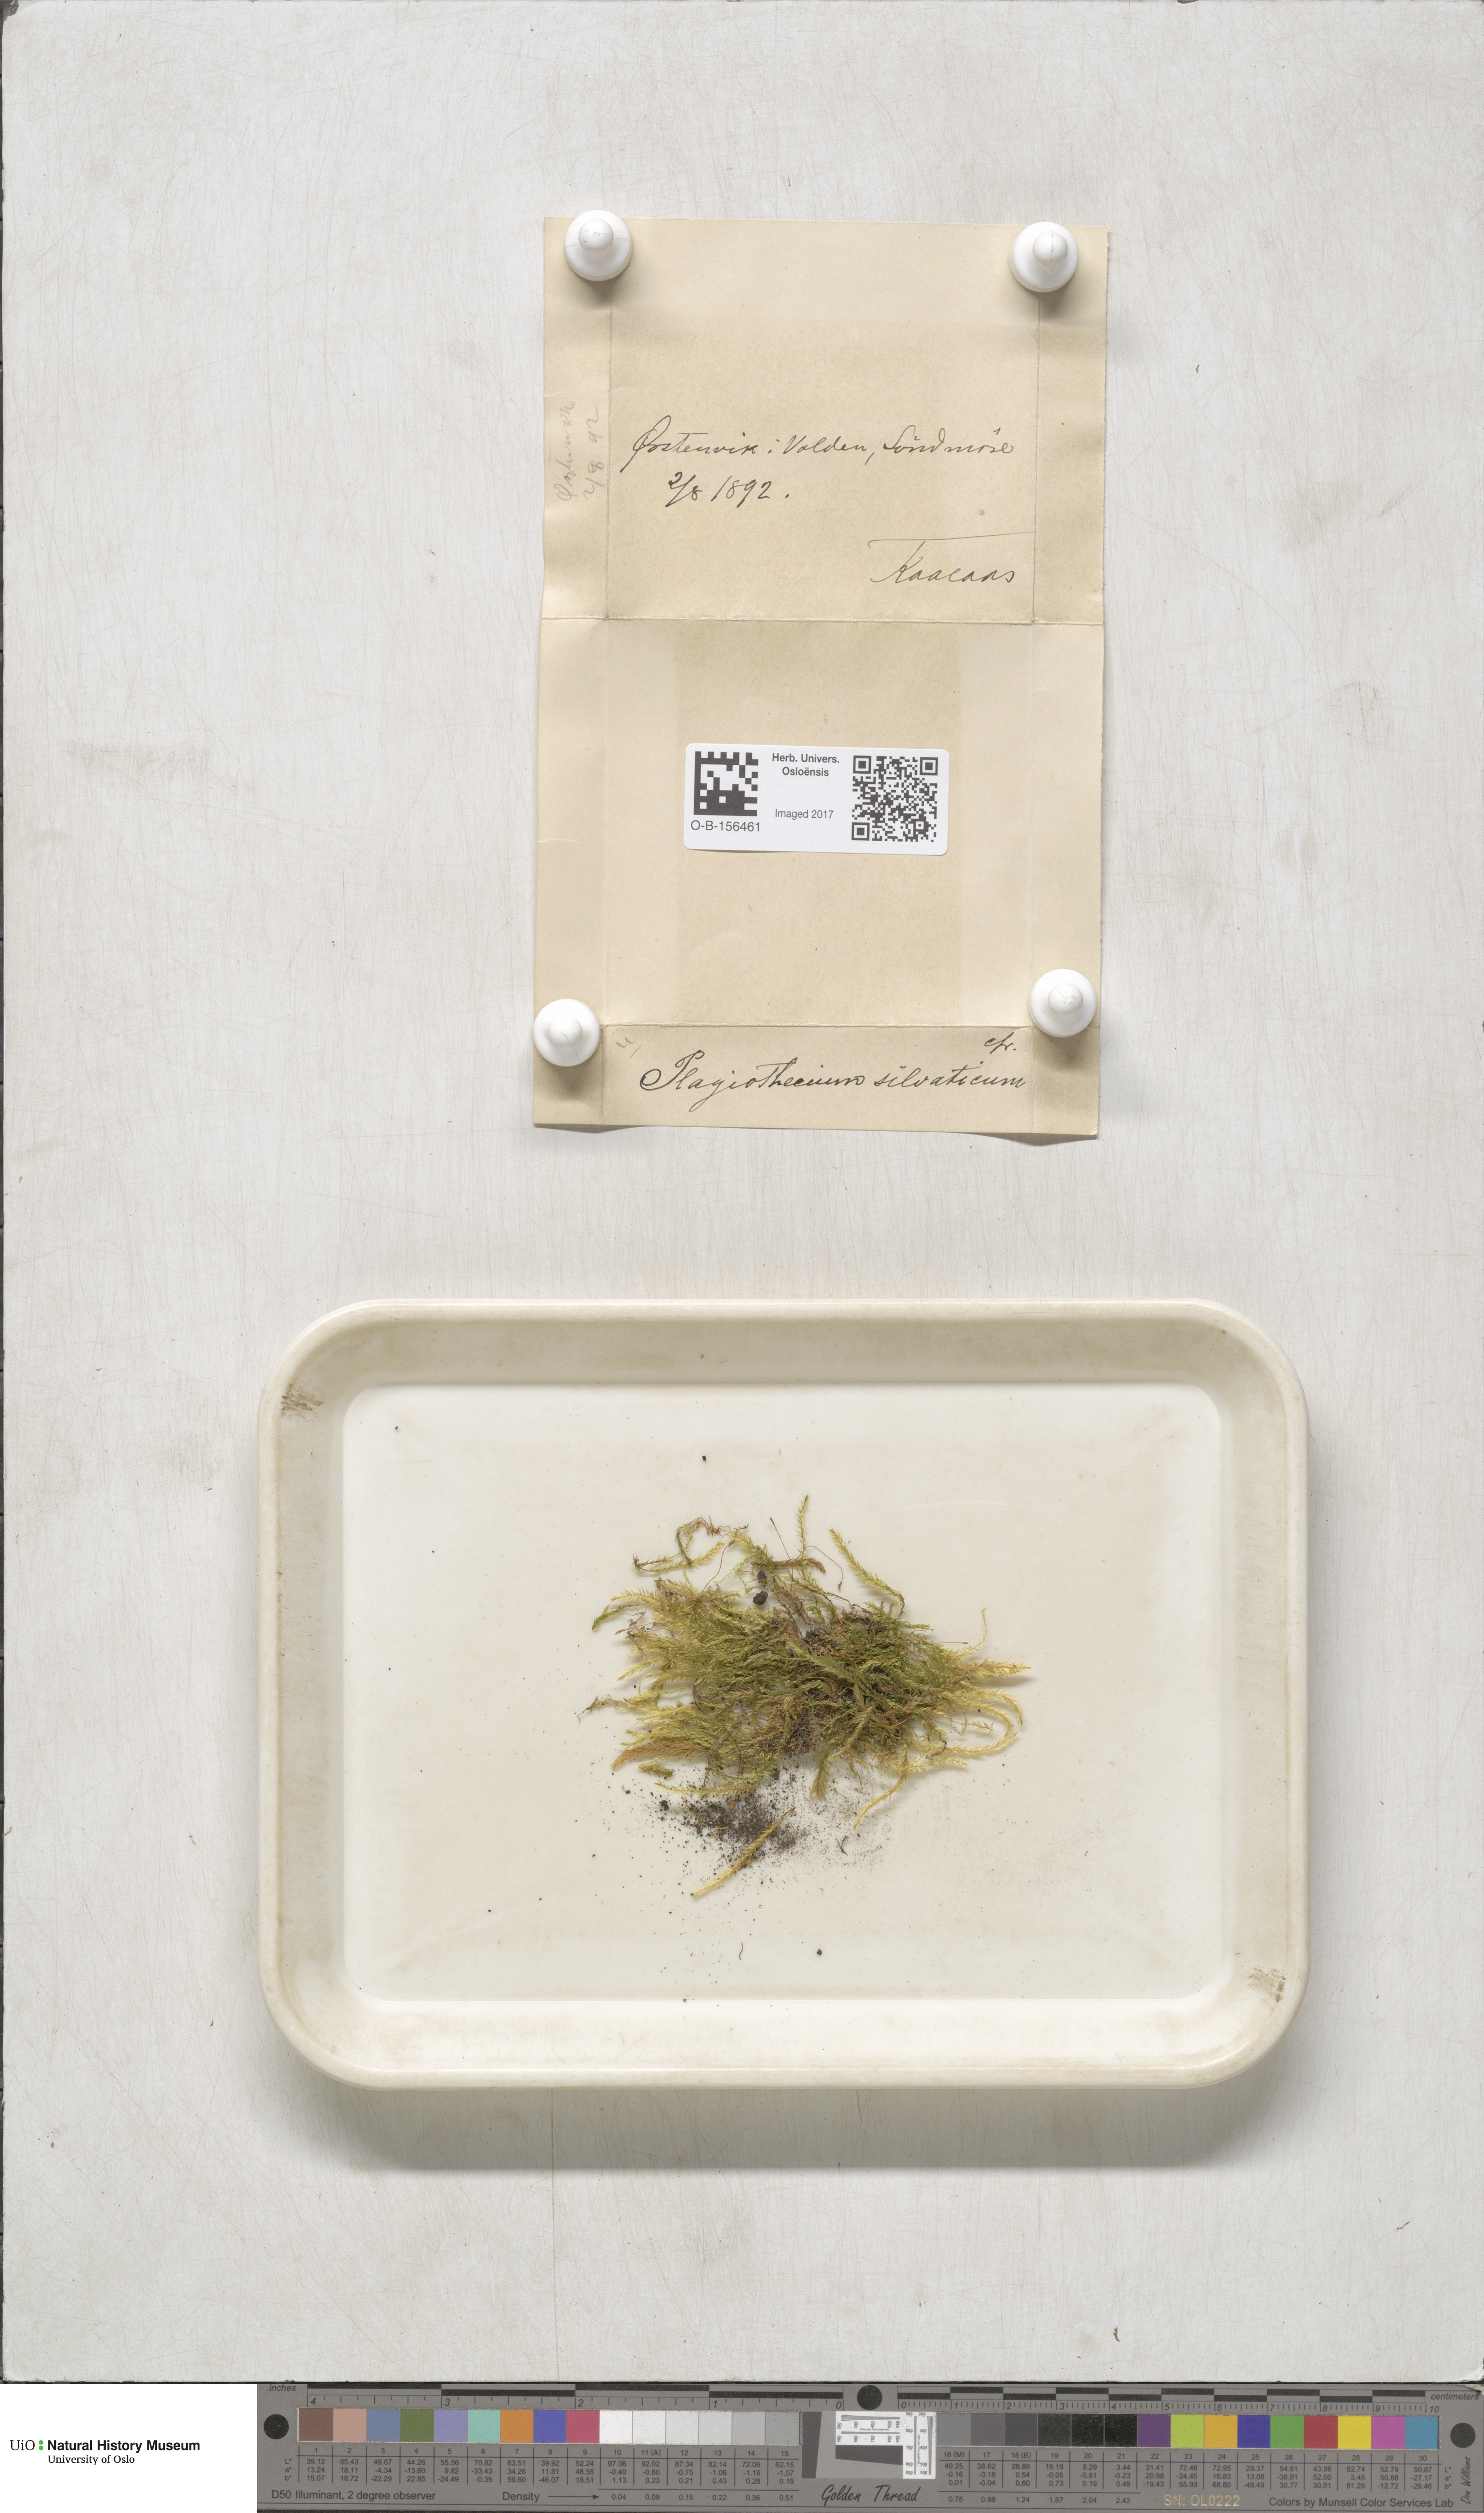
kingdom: Plantae
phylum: Bryophyta
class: Bryopsida
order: Hypnales
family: Plagiotheciaceae
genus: Plagiothecium
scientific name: Plagiothecium nemorale
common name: Woodsy silk-moss
